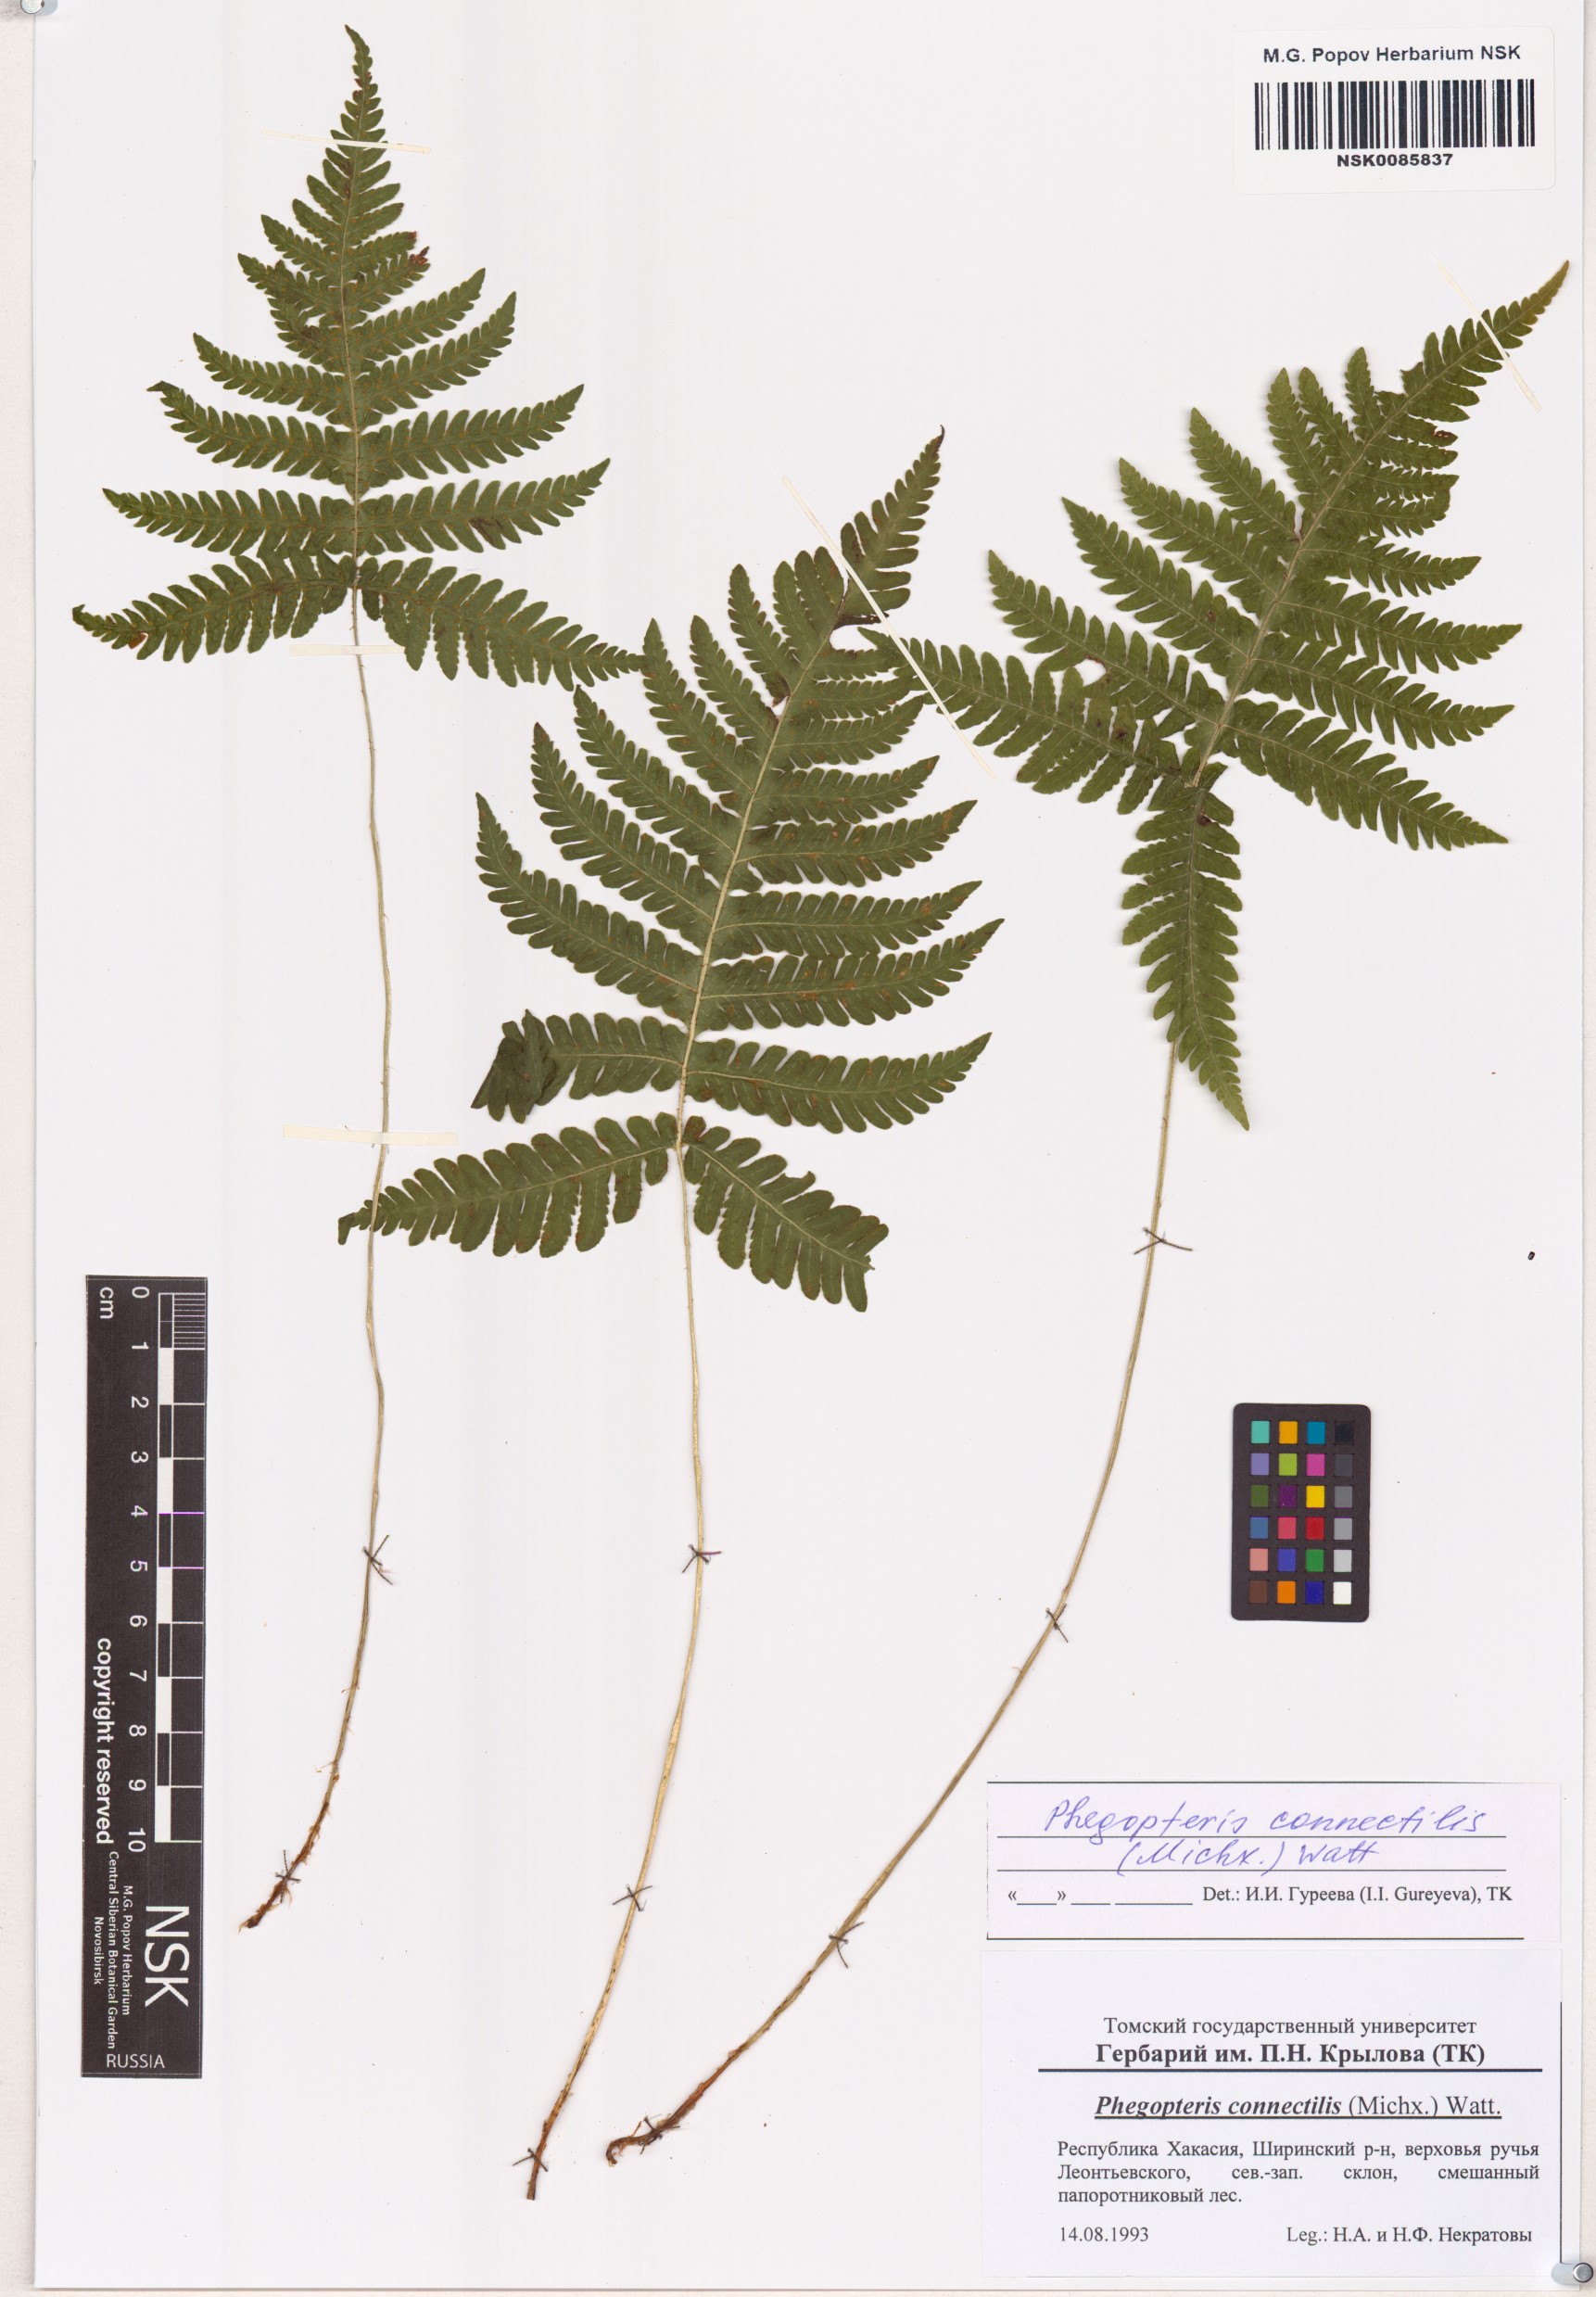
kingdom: Plantae
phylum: Tracheophyta
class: Polypodiopsida
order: Polypodiales
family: Thelypteridaceae
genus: Phegopteris
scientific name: Phegopteris connectilis
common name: Beech fern
